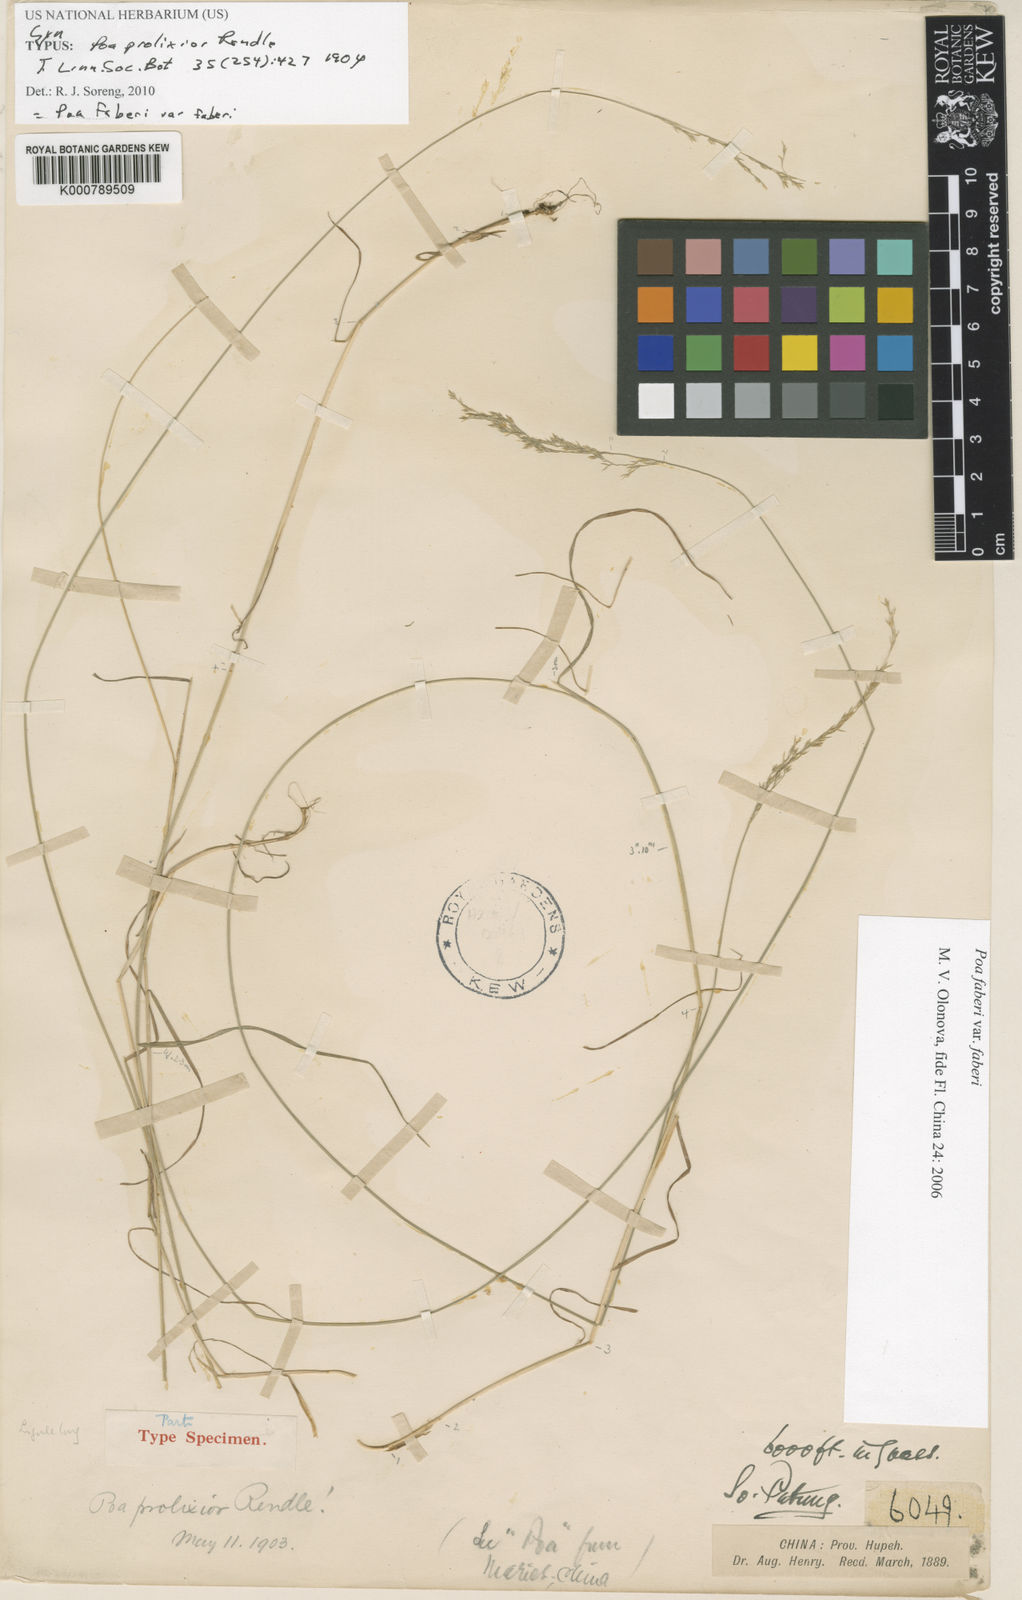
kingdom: Plantae
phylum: Tracheophyta
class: Liliopsida
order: Poales
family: Poaceae
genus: Poa
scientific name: Poa faberi
